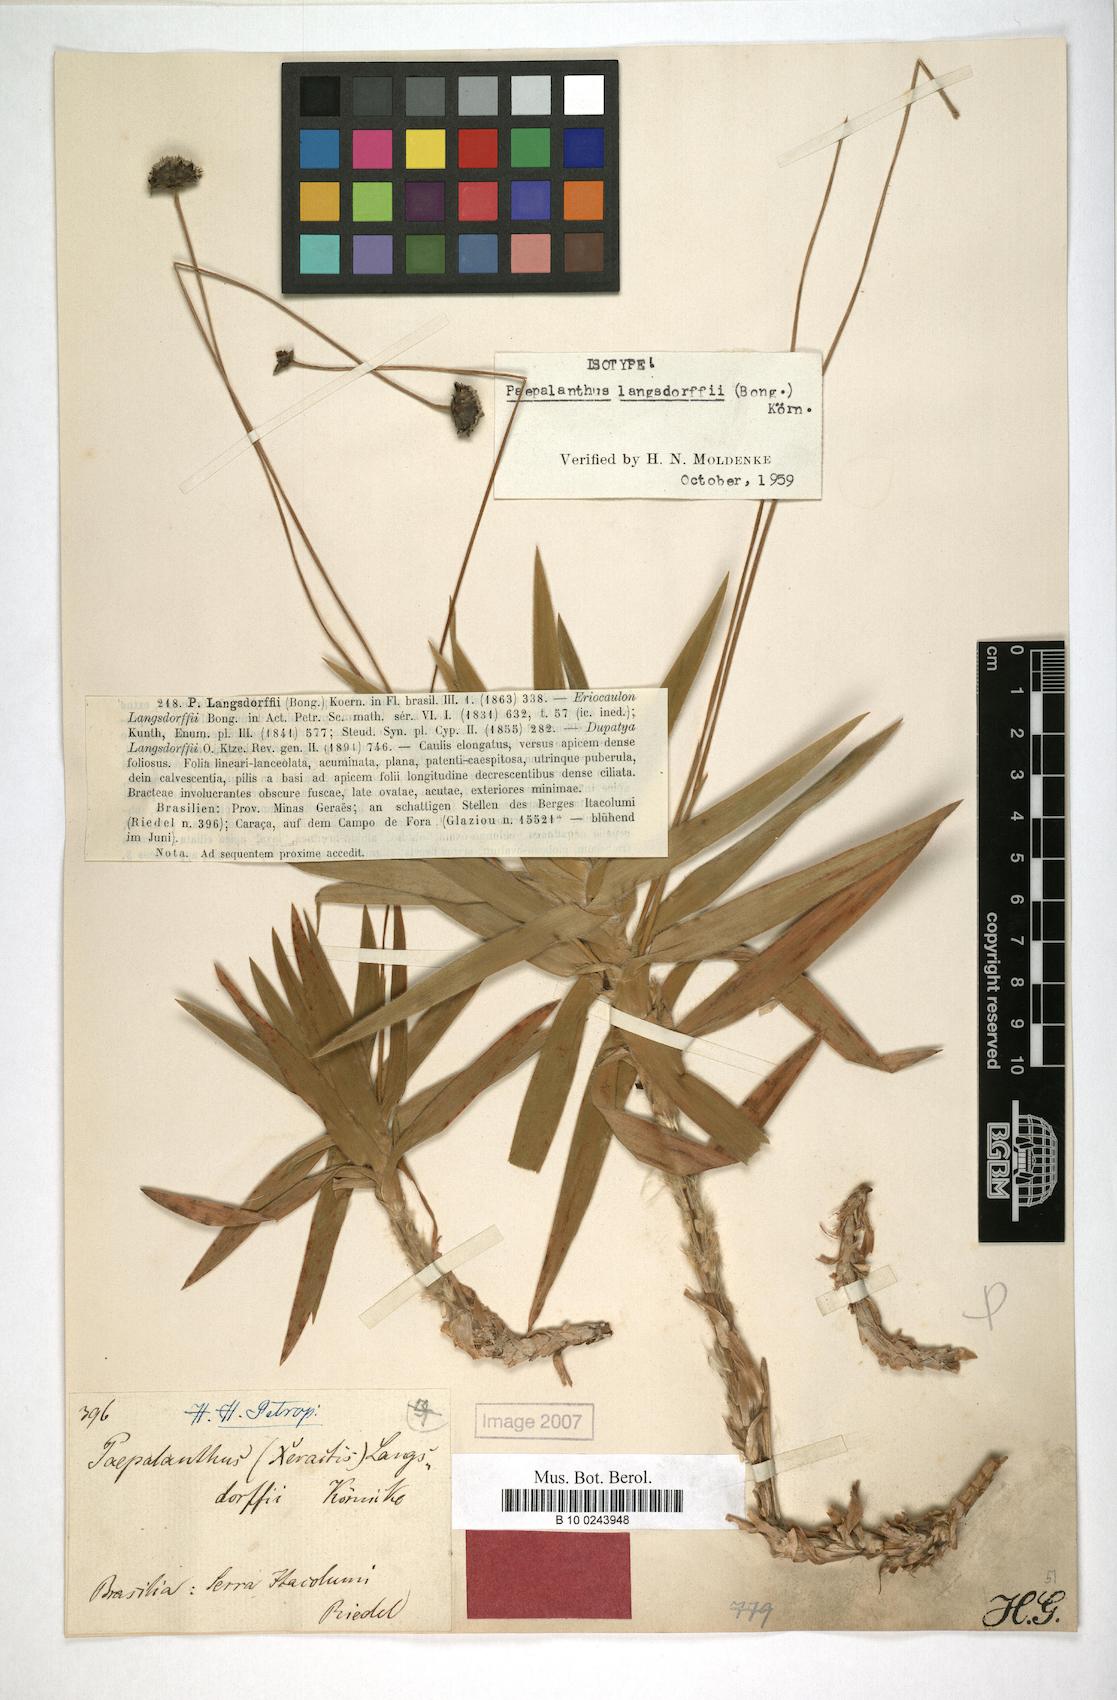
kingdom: Plantae
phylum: Tracheophyta
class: Liliopsida
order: Poales
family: Eriocaulaceae
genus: Paepalanthus
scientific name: Paepalanthus langsdorffii
